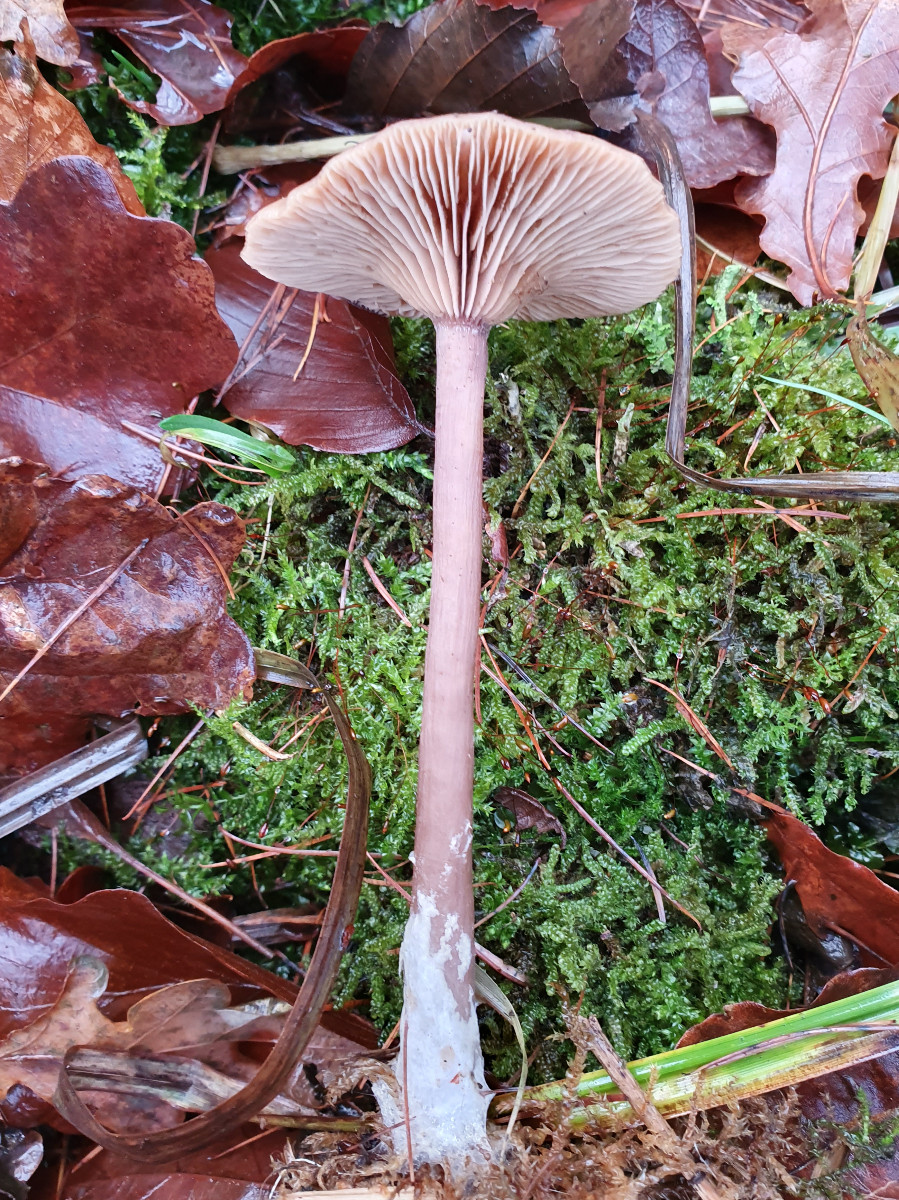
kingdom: Fungi
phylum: Basidiomycota
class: Agaricomycetes
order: Agaricales
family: Pseudoclitocybaceae
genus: Pseudoclitocybe
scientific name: Pseudoclitocybe cyathiformis
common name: almindelig bægertragthat
